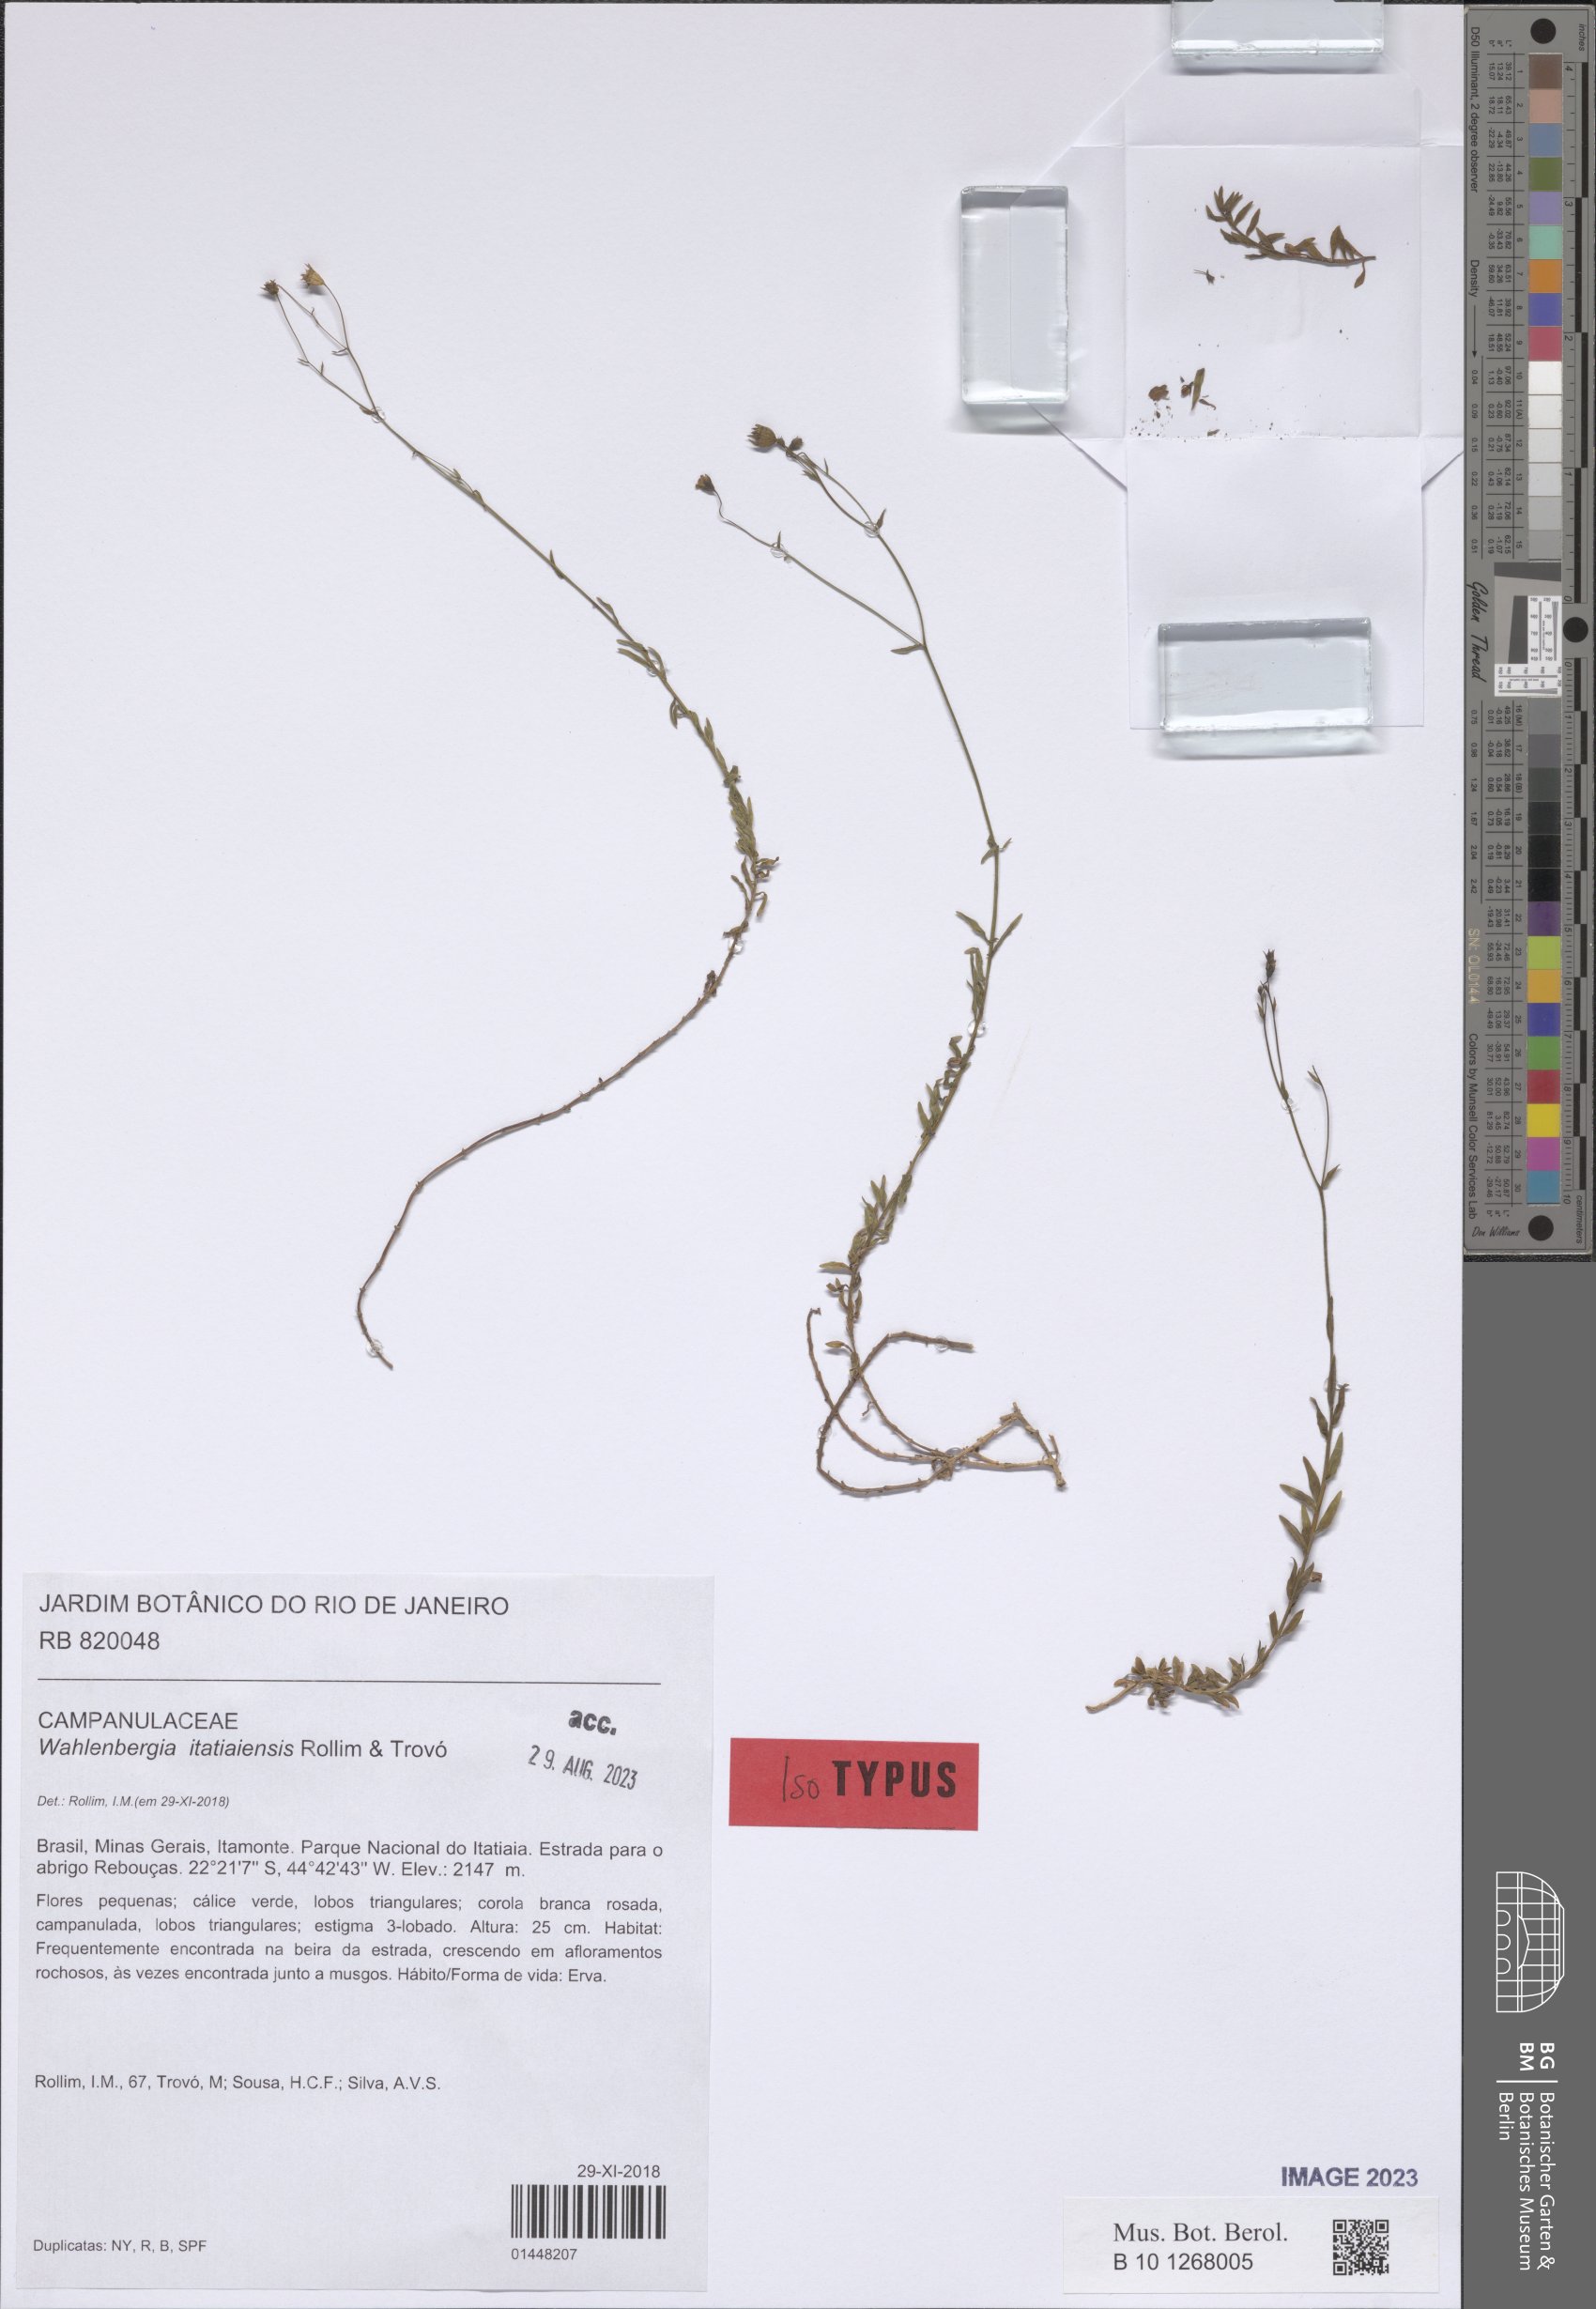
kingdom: Plantae
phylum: Tracheophyta
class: Magnoliopsida
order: Asterales
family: Campanulaceae
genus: Wahlenbergia
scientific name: Wahlenbergia itatiaiensis
